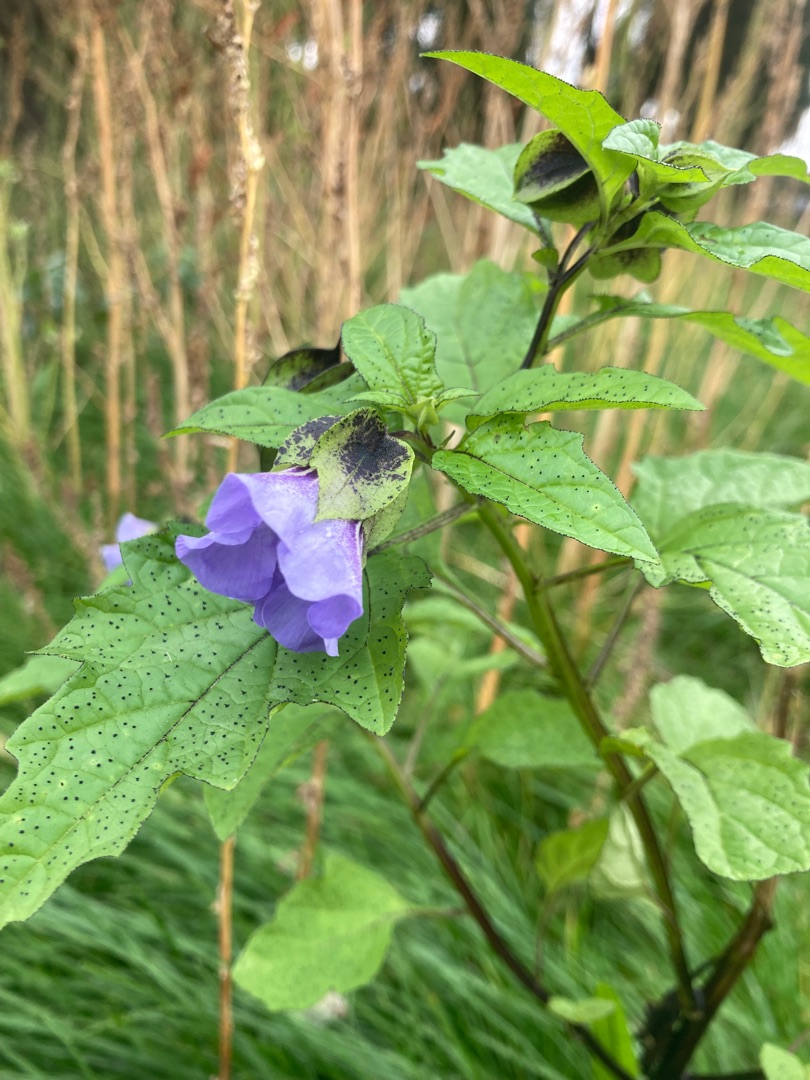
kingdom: Plantae
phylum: Tracheophyta
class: Magnoliopsida
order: Solanales
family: Solanaceae
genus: Nicandra
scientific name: Nicandra physalodes
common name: Kantbæger
